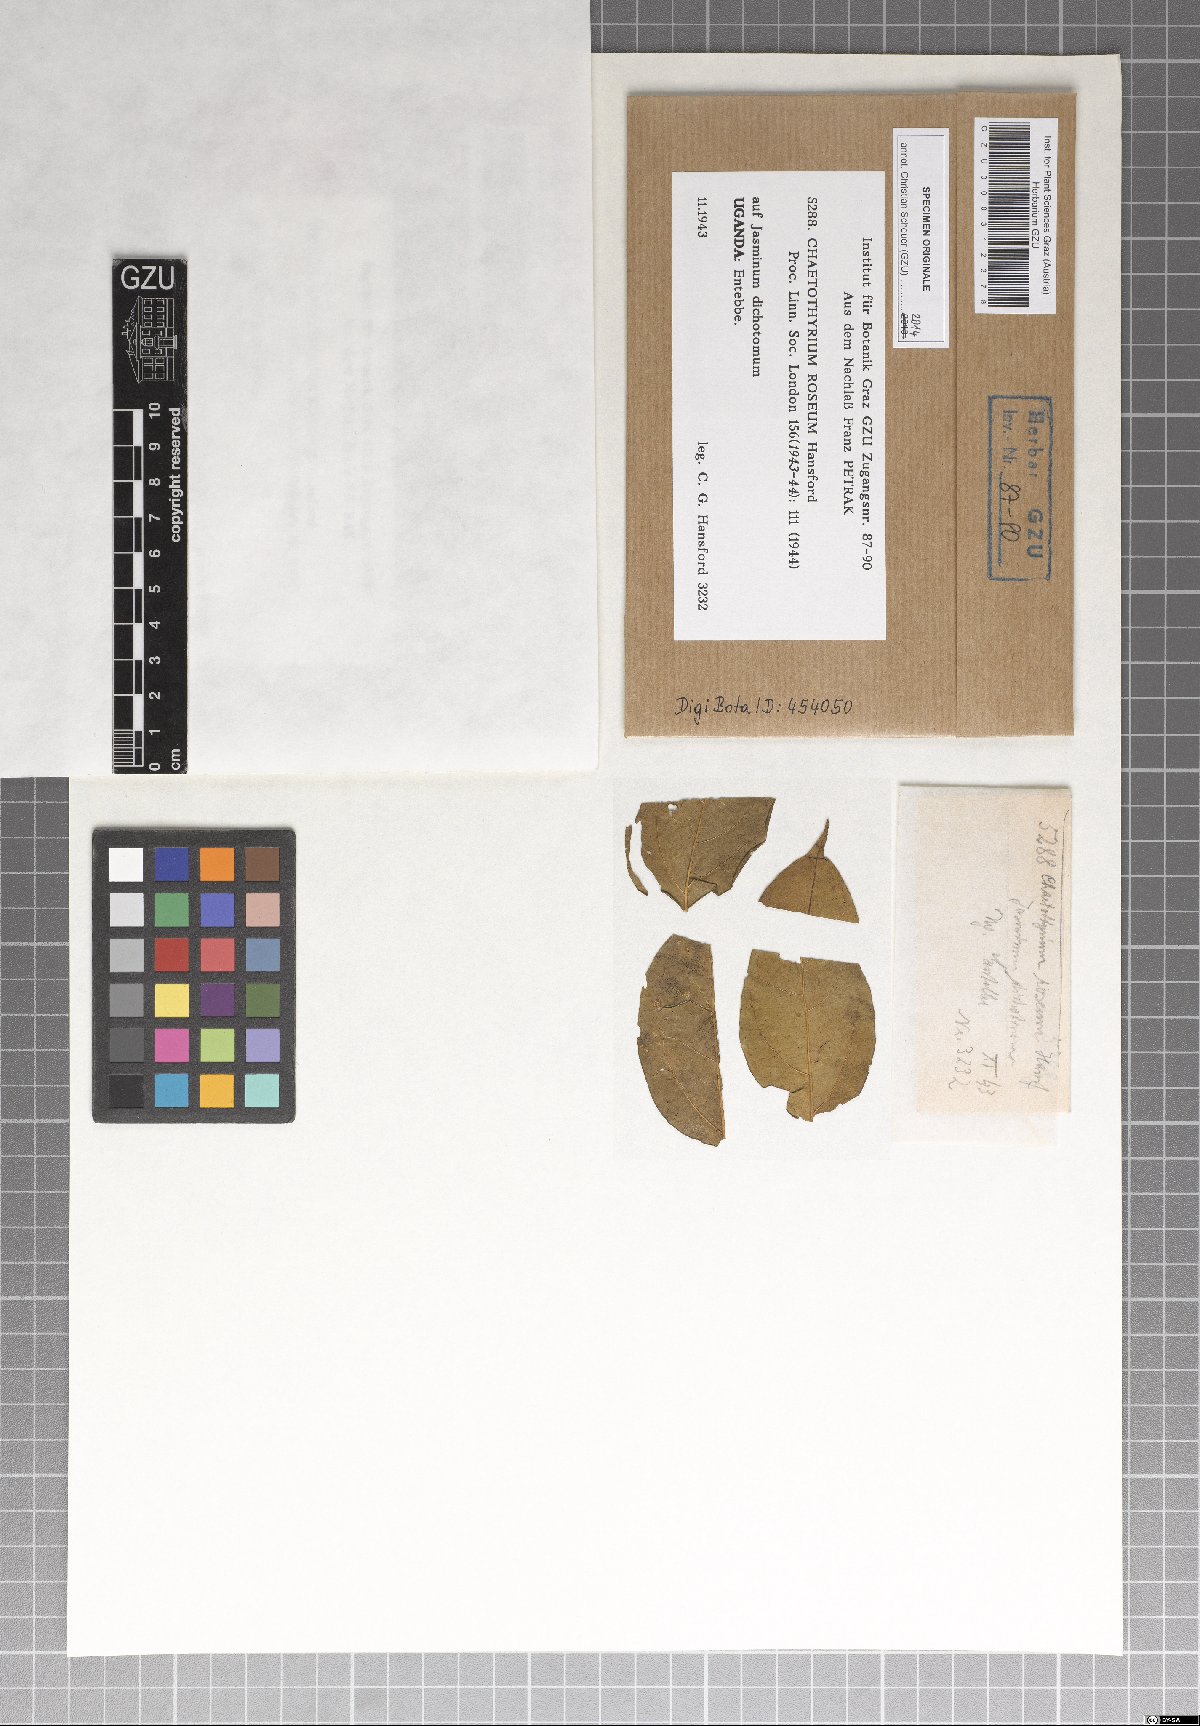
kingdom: Fungi
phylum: Ascomycota
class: Eurotiomycetes
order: Chaetothyriales
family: Chaetothyriaceae
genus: Chaetothyrium
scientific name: Chaetothyrium roseum
